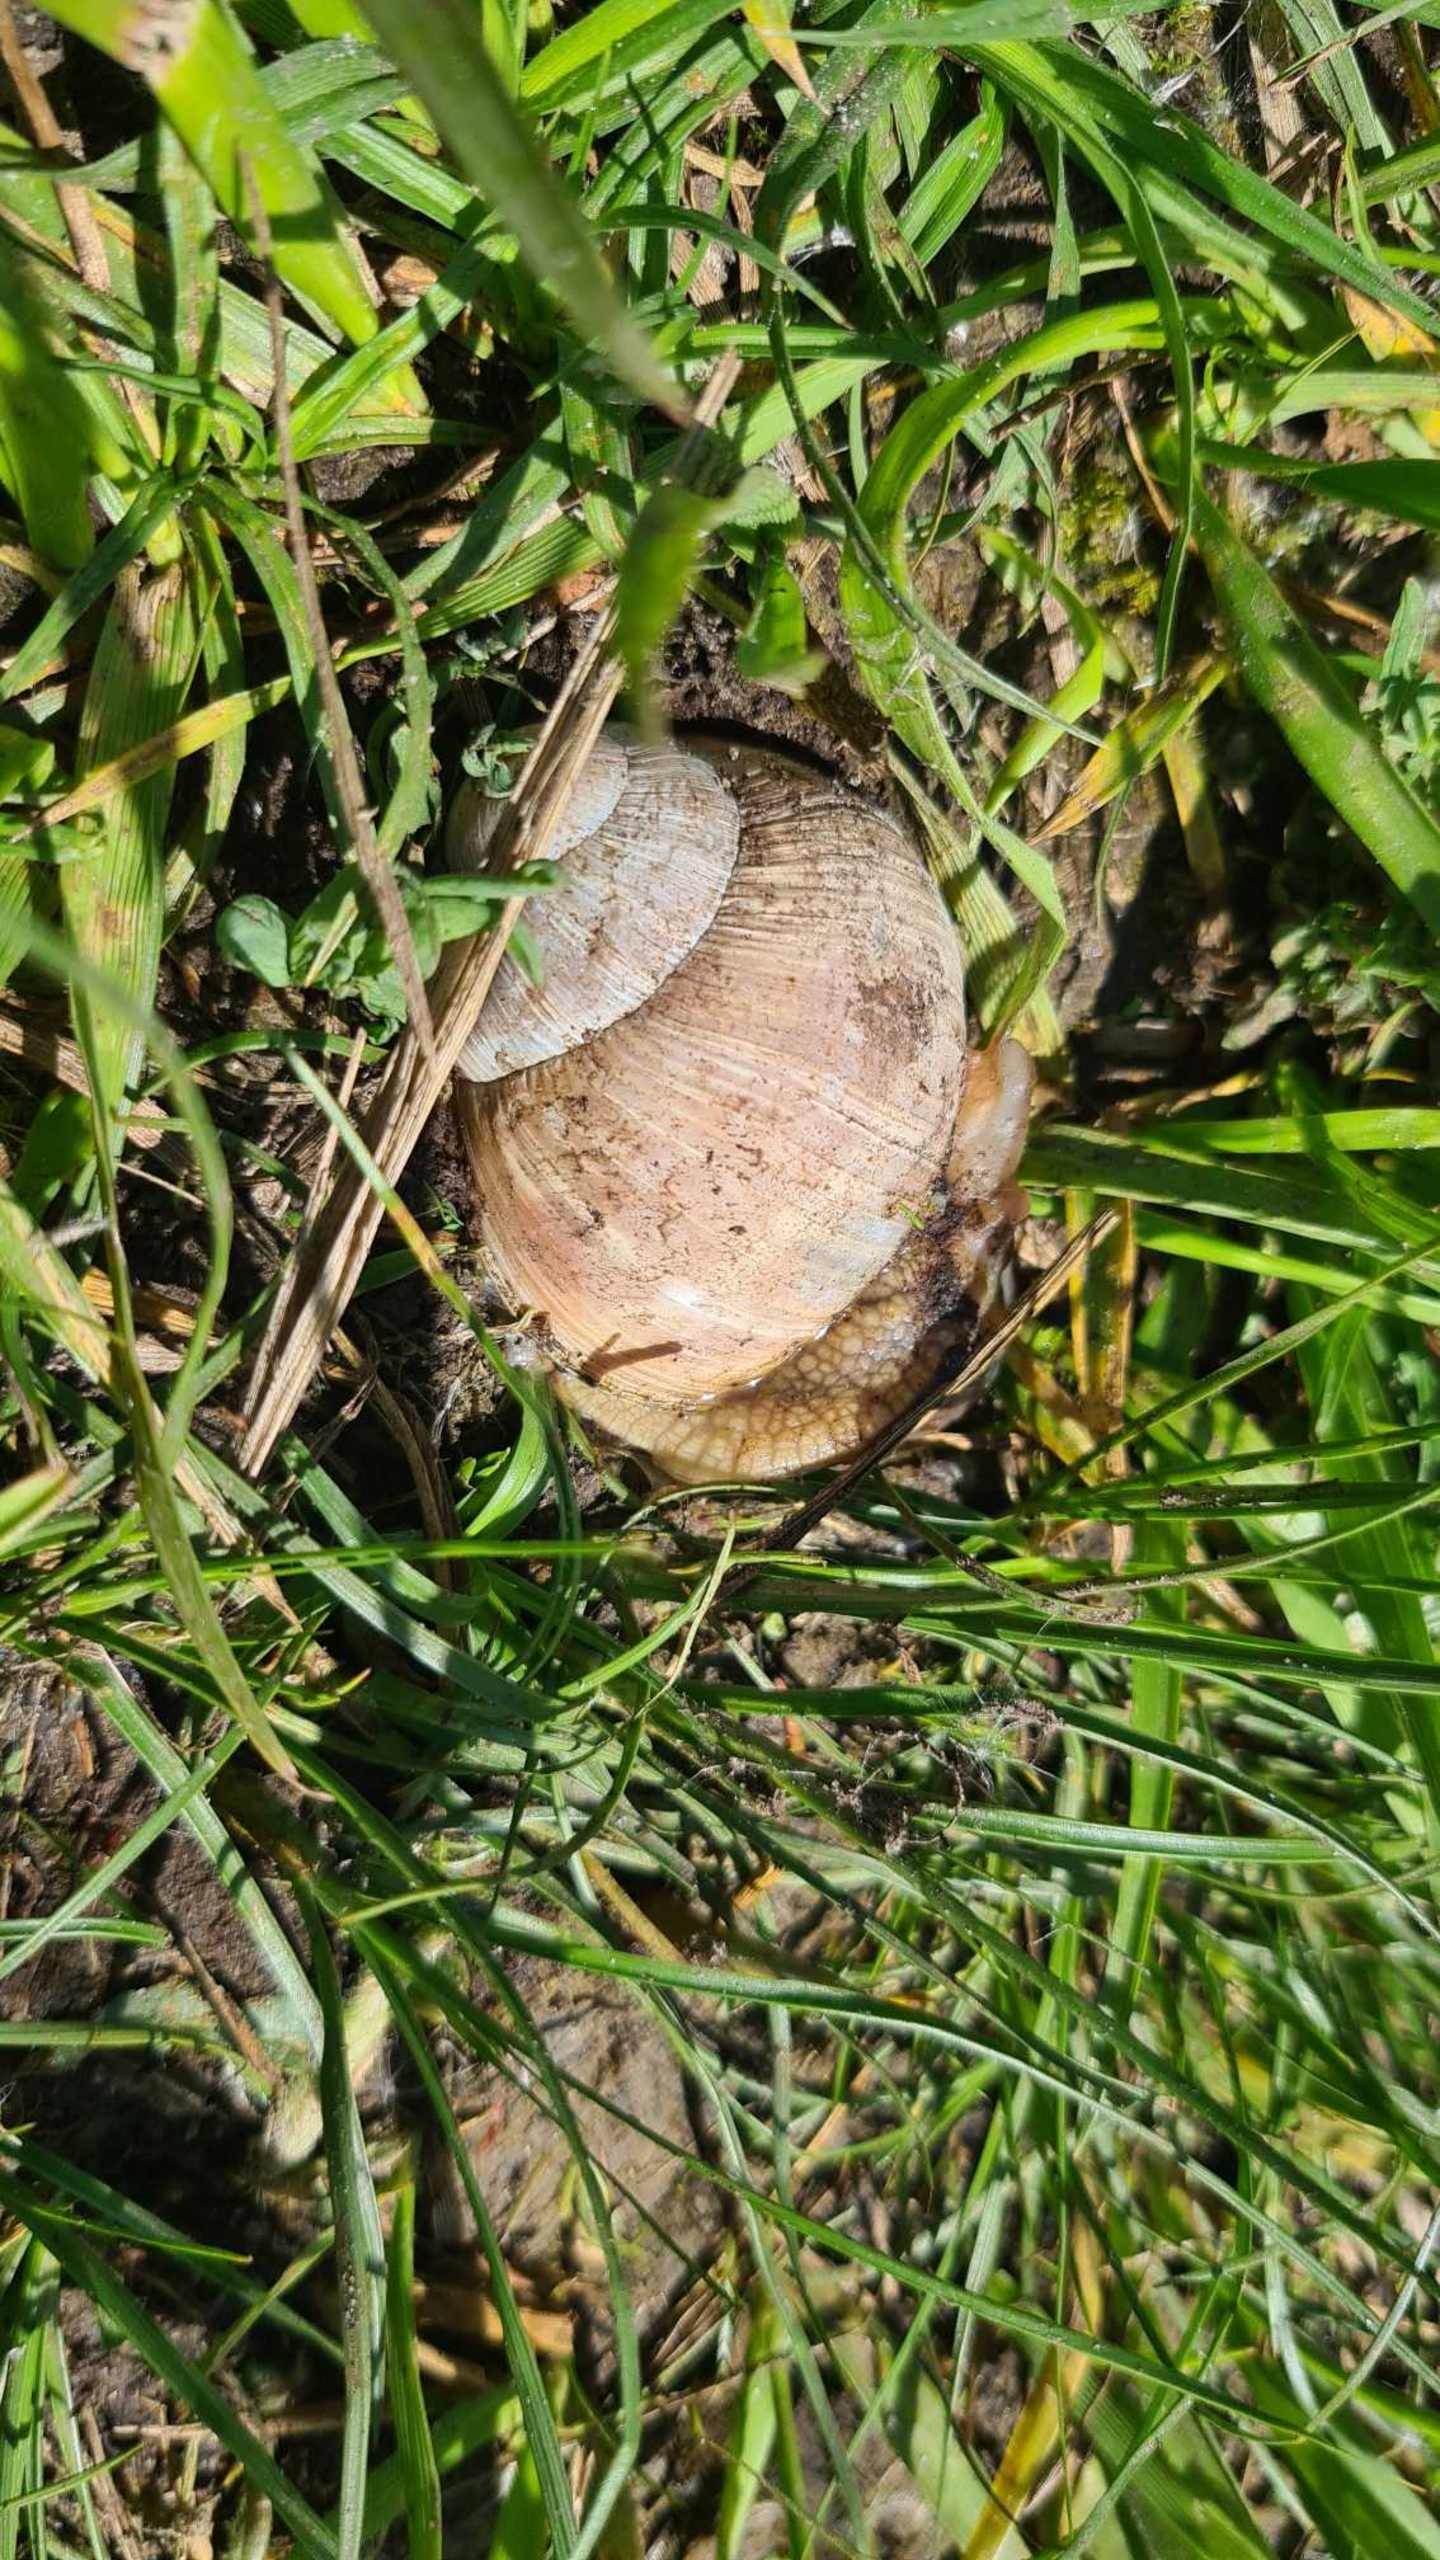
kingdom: Animalia
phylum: Mollusca
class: Gastropoda
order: Stylommatophora
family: Helicidae
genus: Helix
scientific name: Helix pomatia
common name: Vinbjergsnegl
